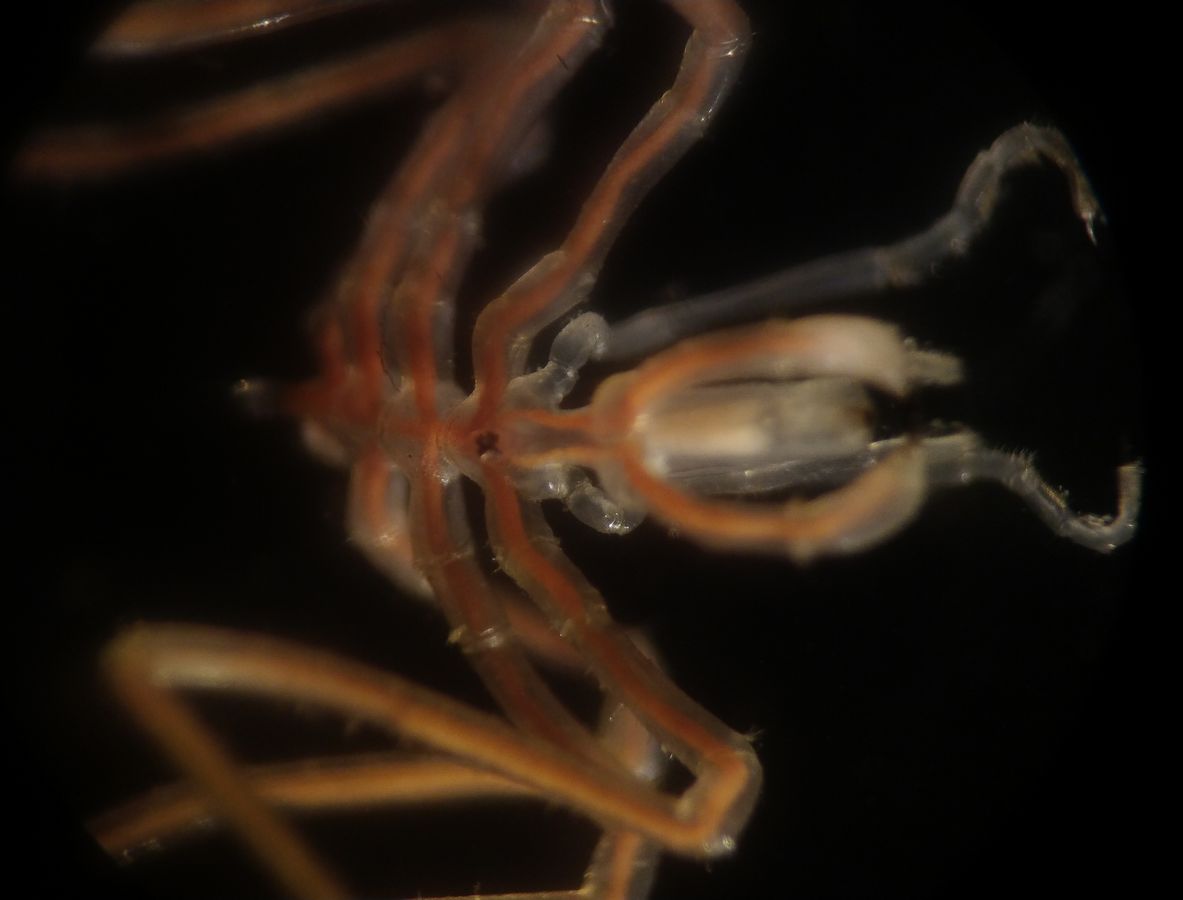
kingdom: Animalia
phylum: Arthropoda
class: Pycnogonida
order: Pantopoda
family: Nymphonidae
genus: Nymphon
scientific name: Nymphon grossipes
